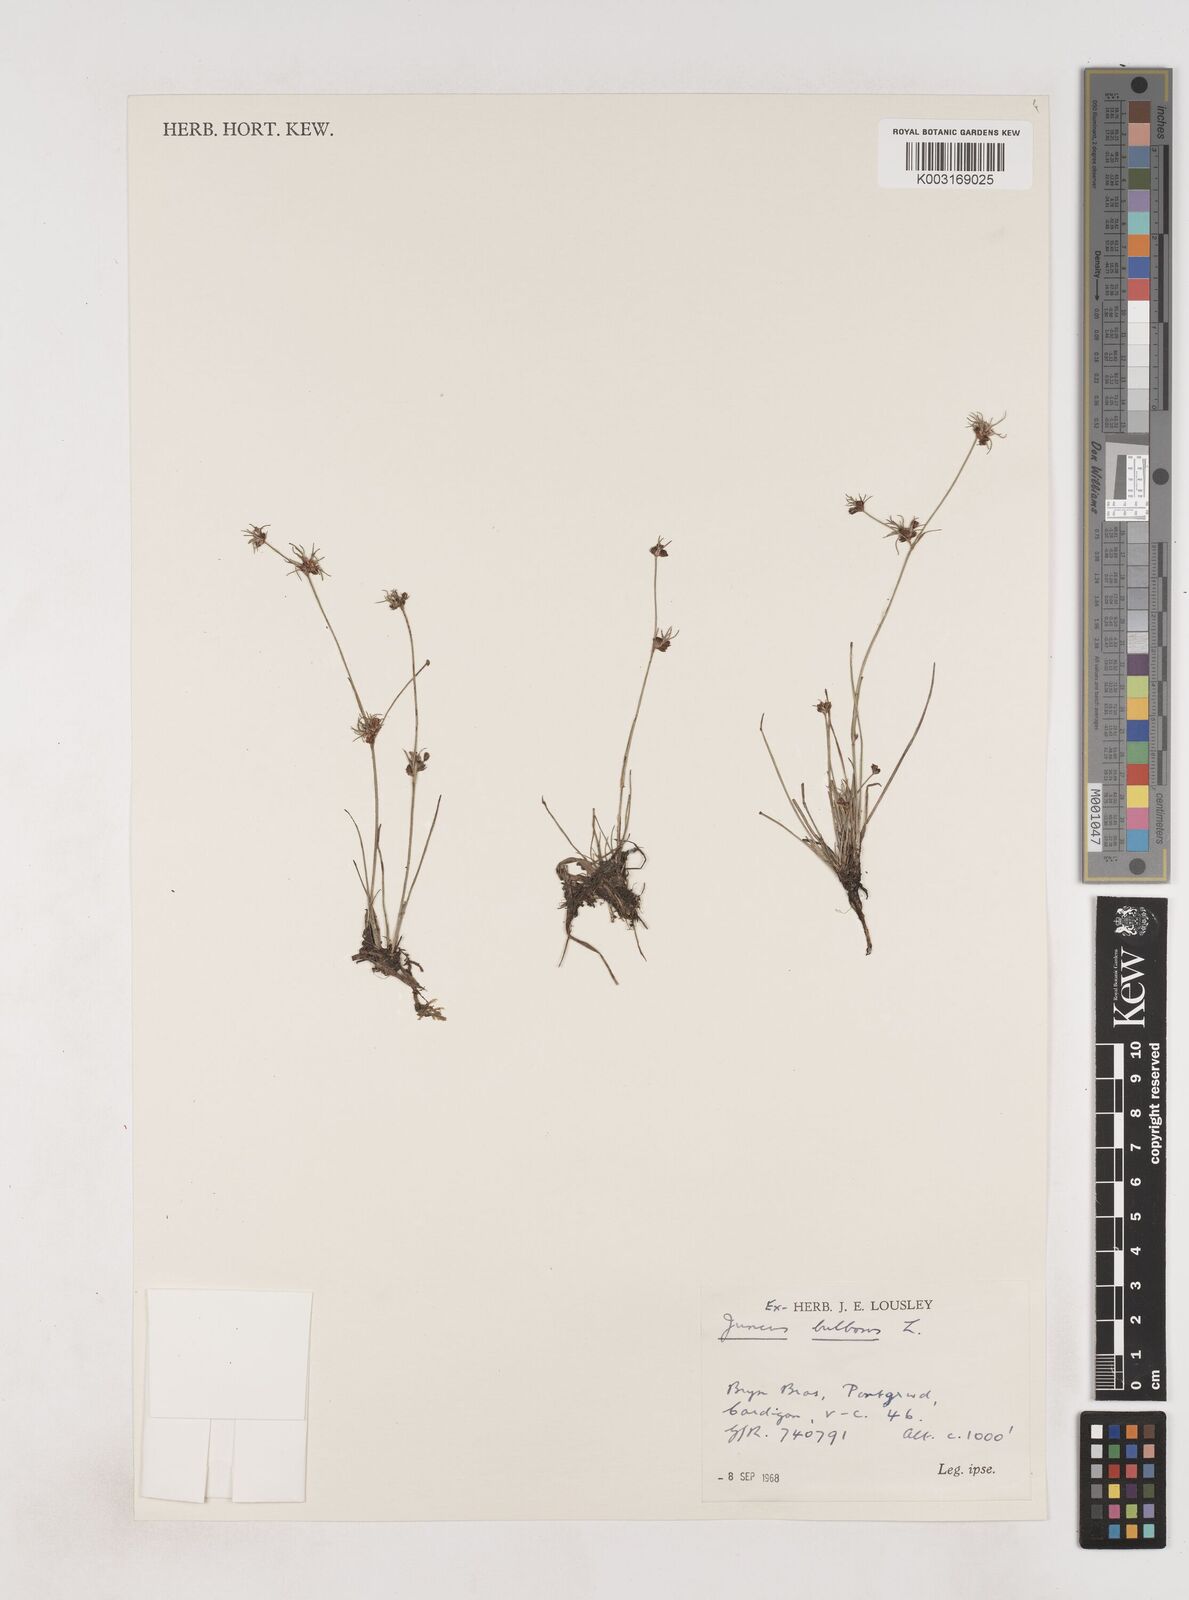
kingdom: Plantae
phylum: Tracheophyta
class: Liliopsida
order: Poales
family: Juncaceae
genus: Juncus
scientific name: Juncus bulbosus
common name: Bulbous rush
